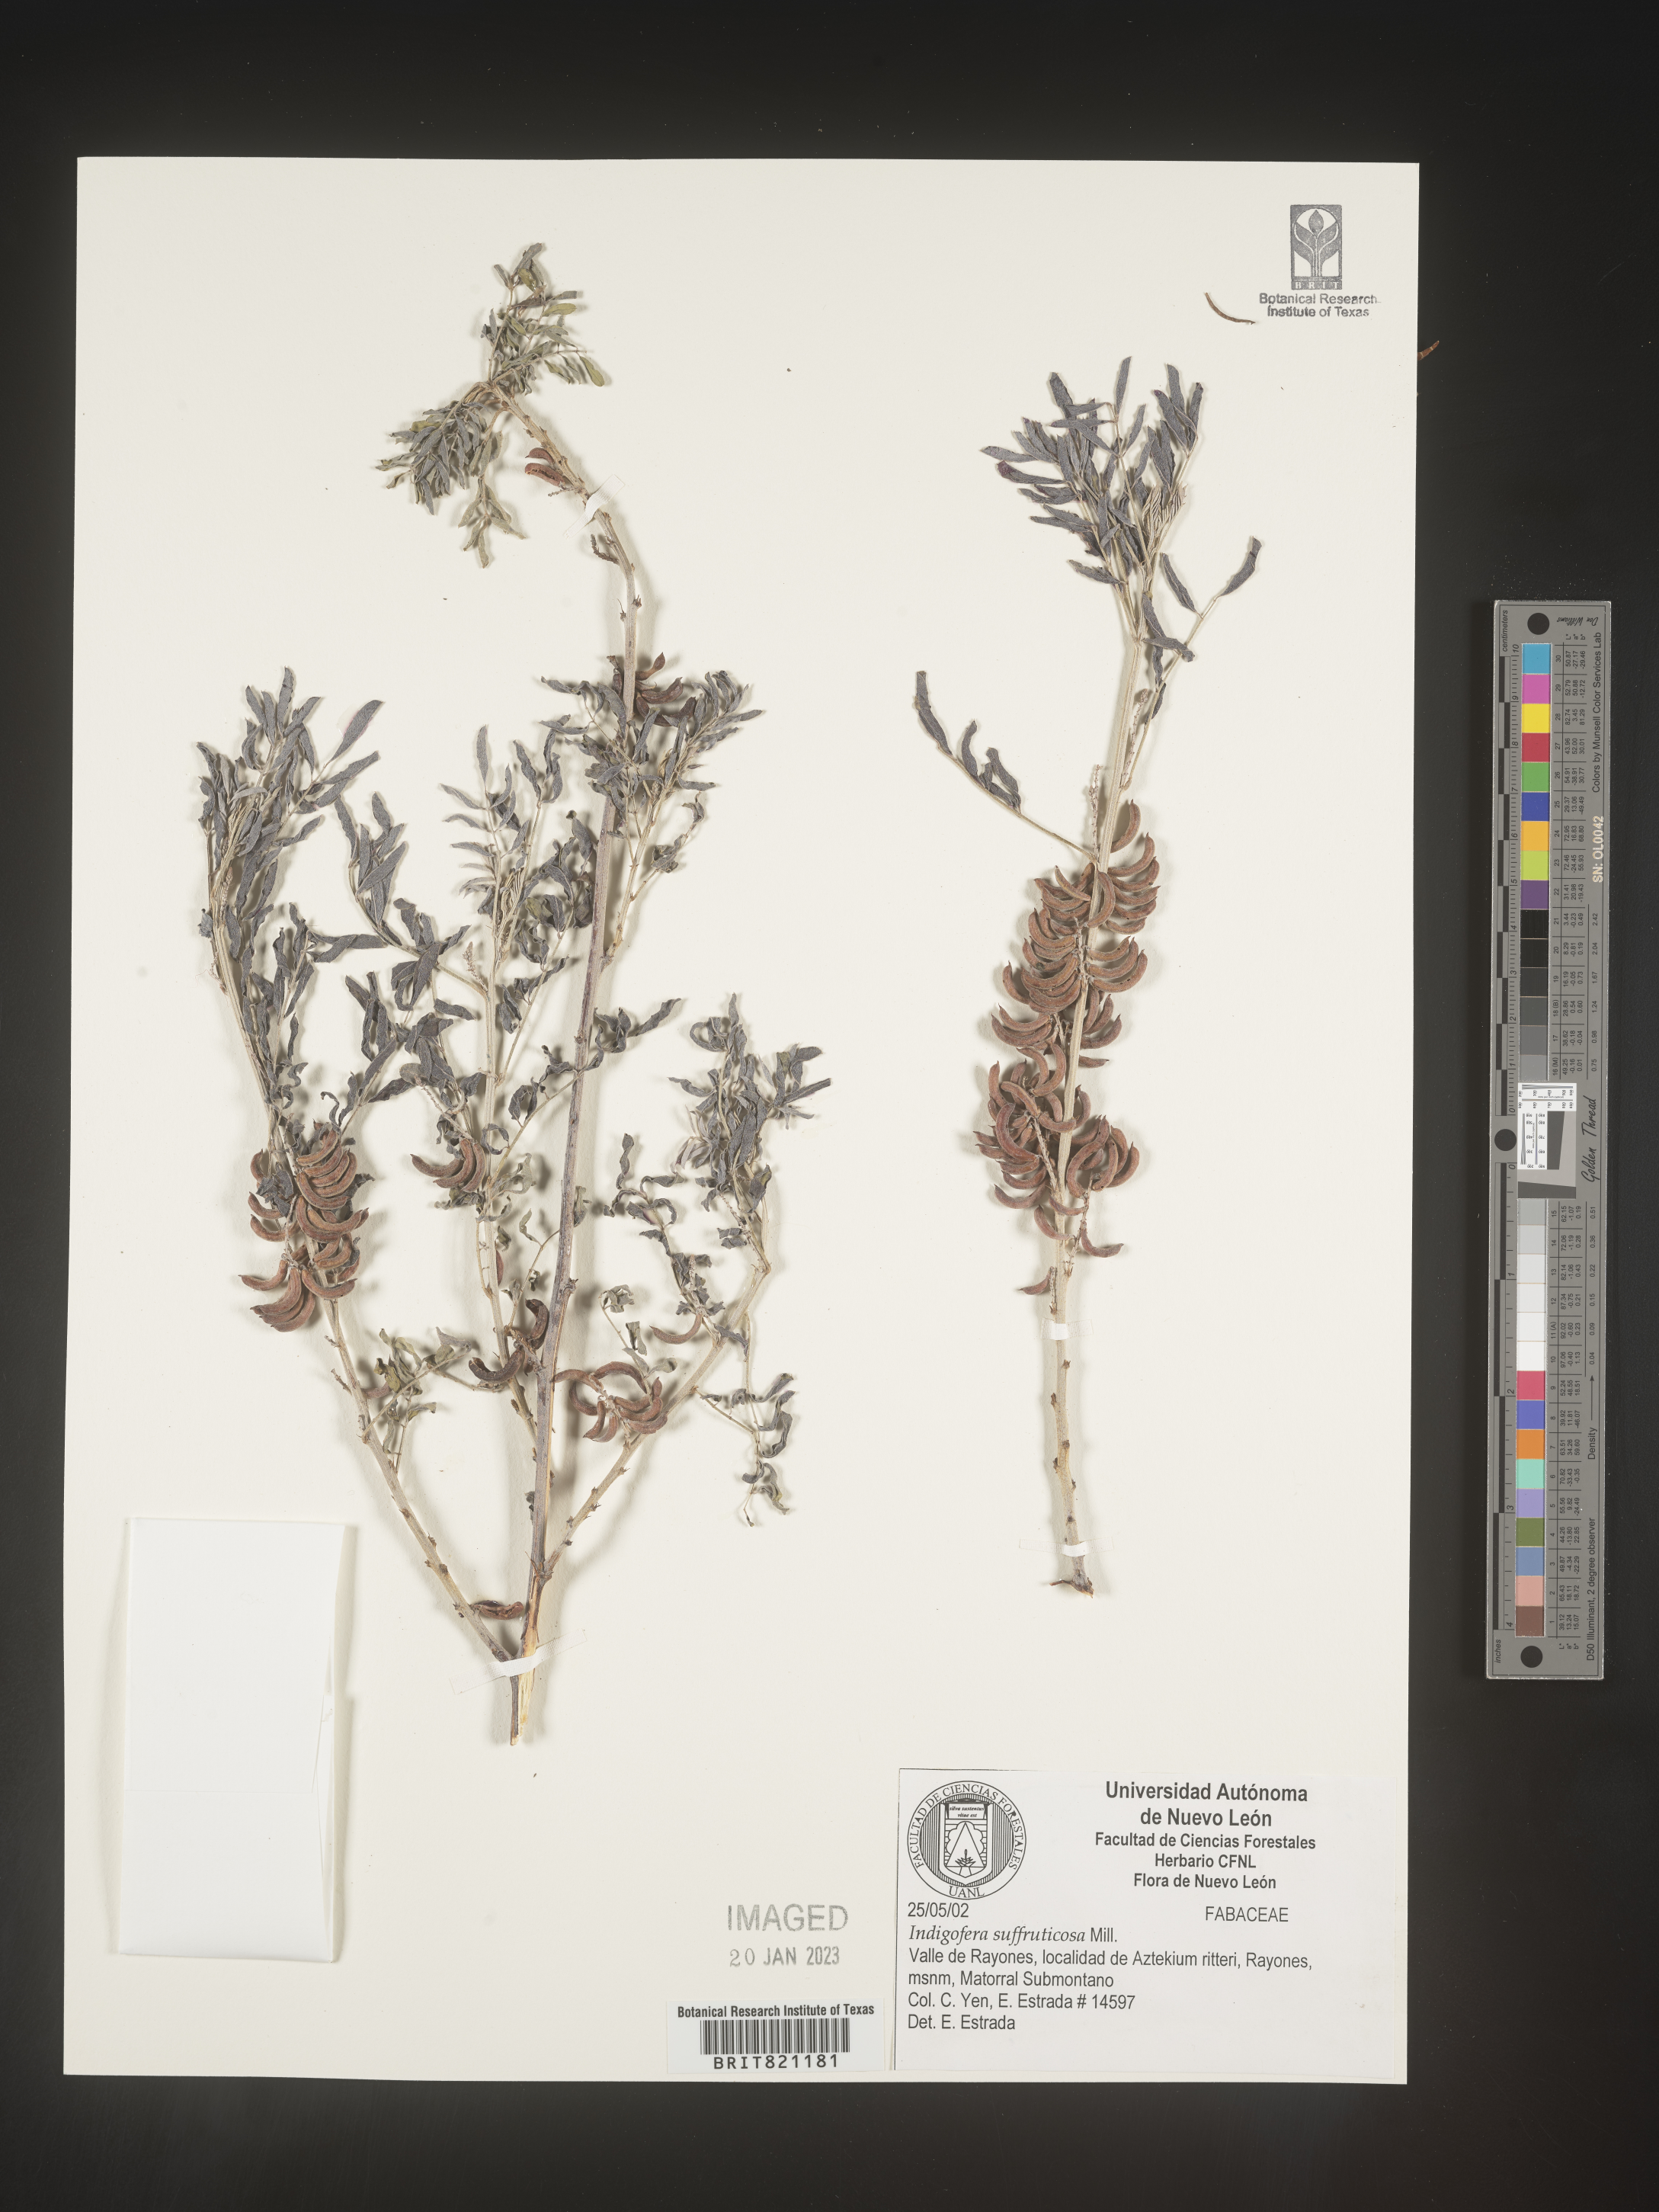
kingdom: Plantae
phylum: Tracheophyta
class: Magnoliopsida
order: Fabales
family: Fabaceae
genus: Indigofera
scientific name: Indigofera
